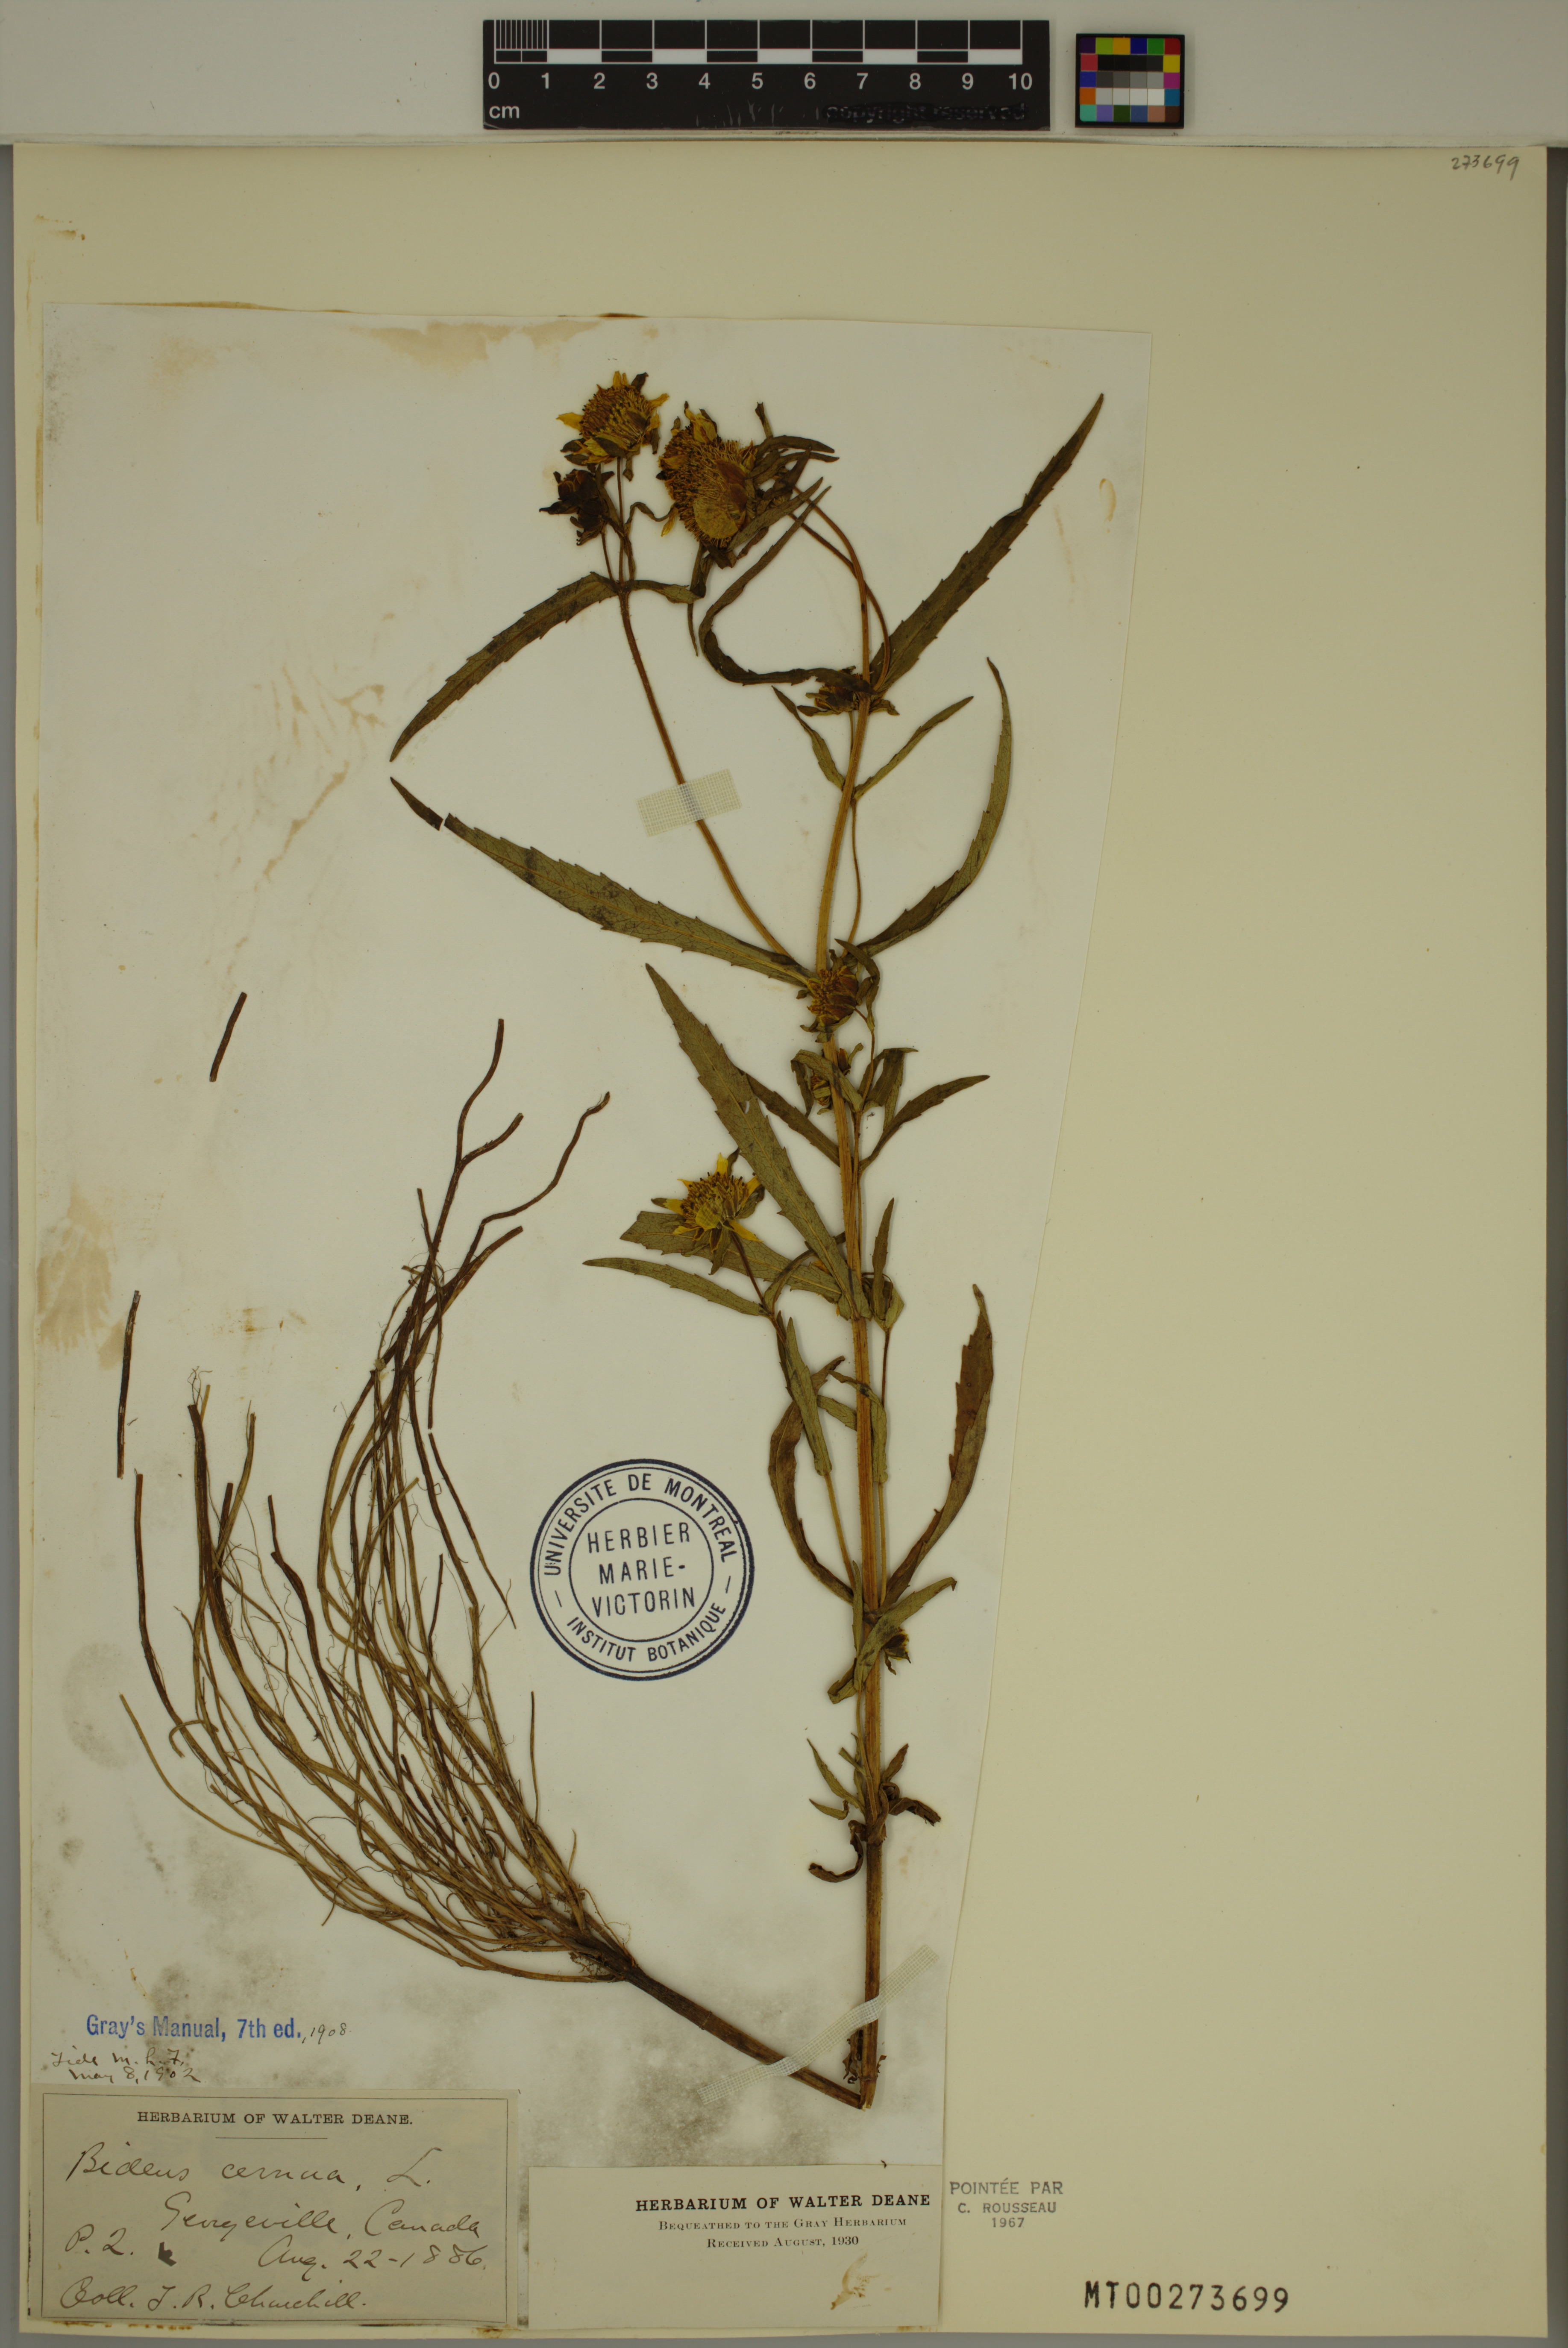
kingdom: Plantae
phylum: Tracheophyta
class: Magnoliopsida
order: Asterales
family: Asteraceae
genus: Bidens
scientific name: Bidens cernua
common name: Nodding bur-marigold
